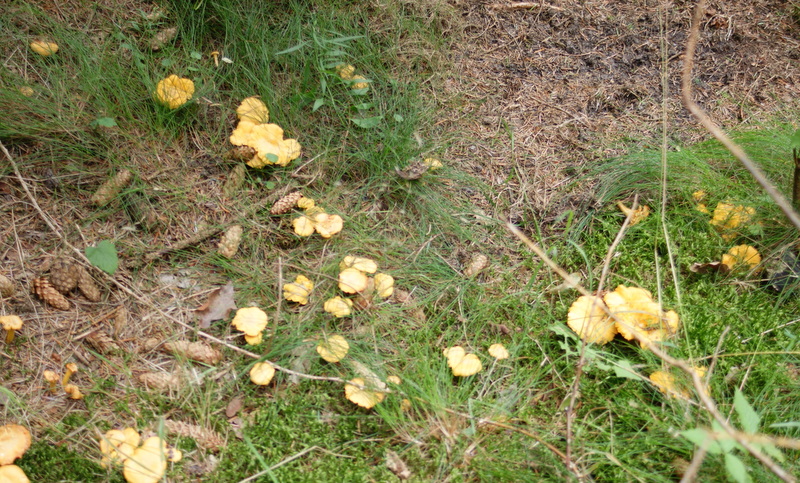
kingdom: Fungi
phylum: Basidiomycota
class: Agaricomycetes
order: Cantharellales
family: Hydnaceae
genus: Cantharellus
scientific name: Cantharellus cibarius
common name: almindelig kantarel
